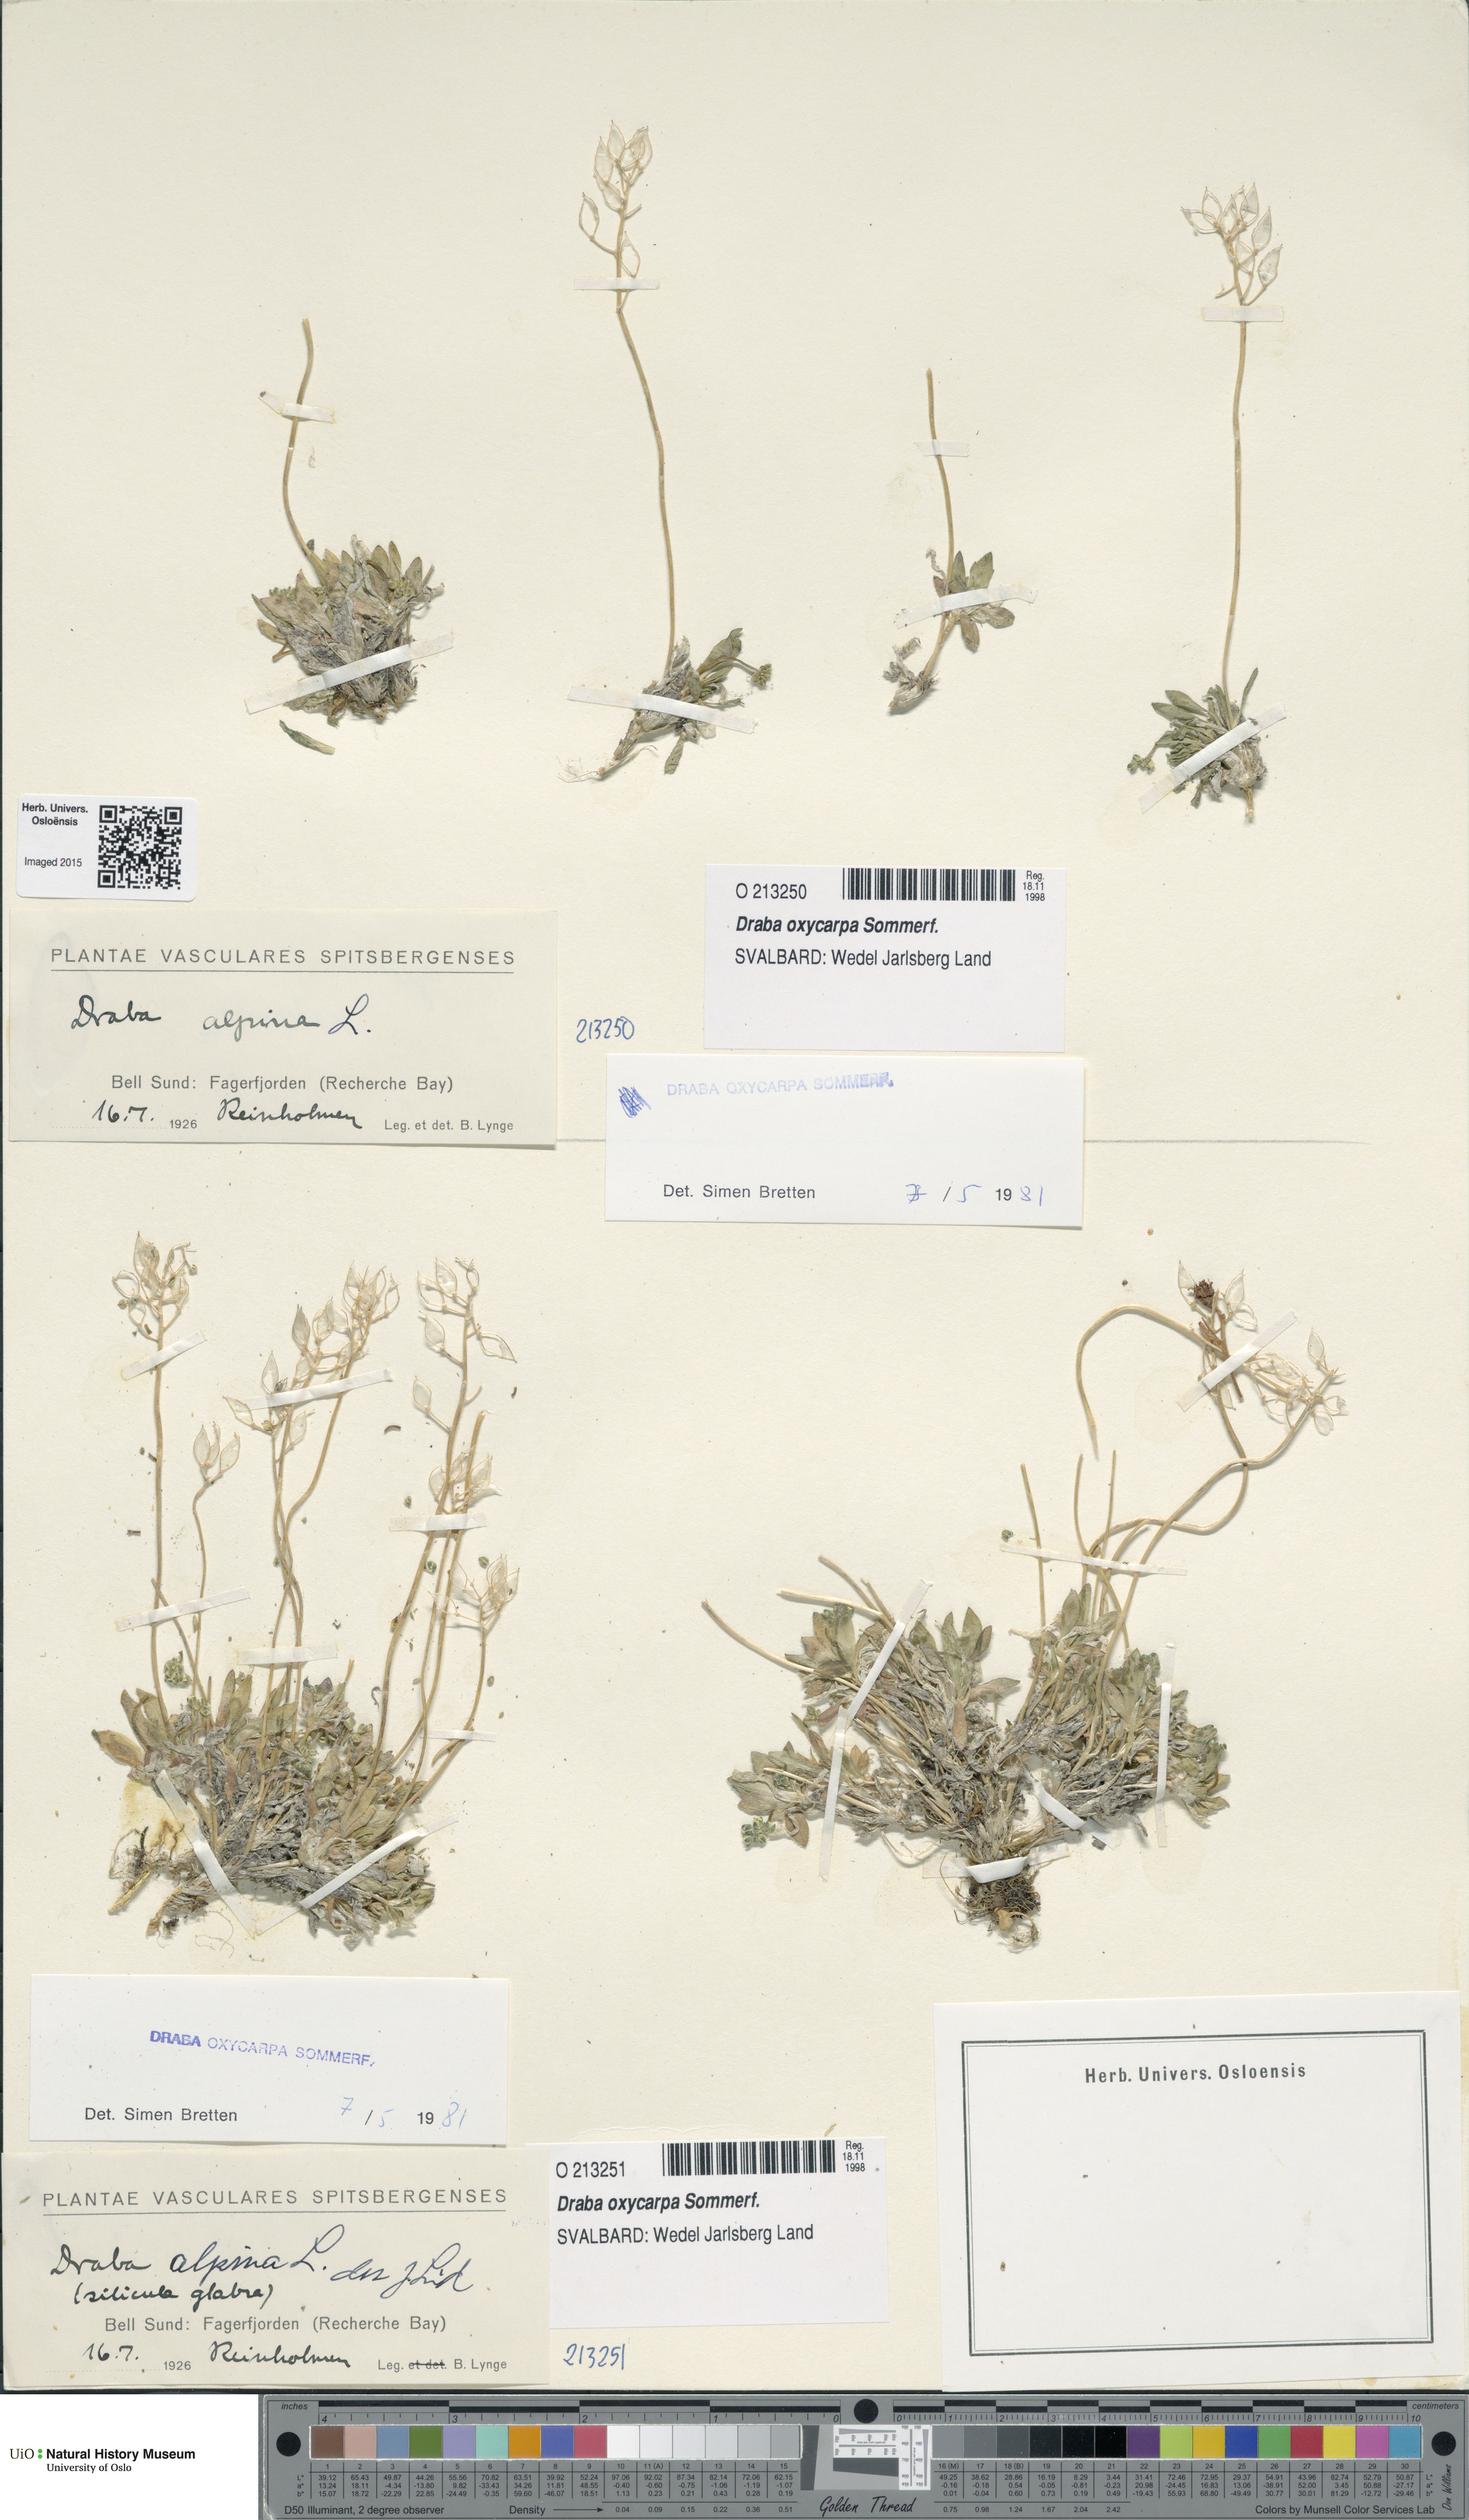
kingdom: Plantae
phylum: Tracheophyta
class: Magnoliopsida
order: Brassicales
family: Brassicaceae
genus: Draba
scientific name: Draba oxycarpa
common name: Sharp-fruited whitlow-grass
